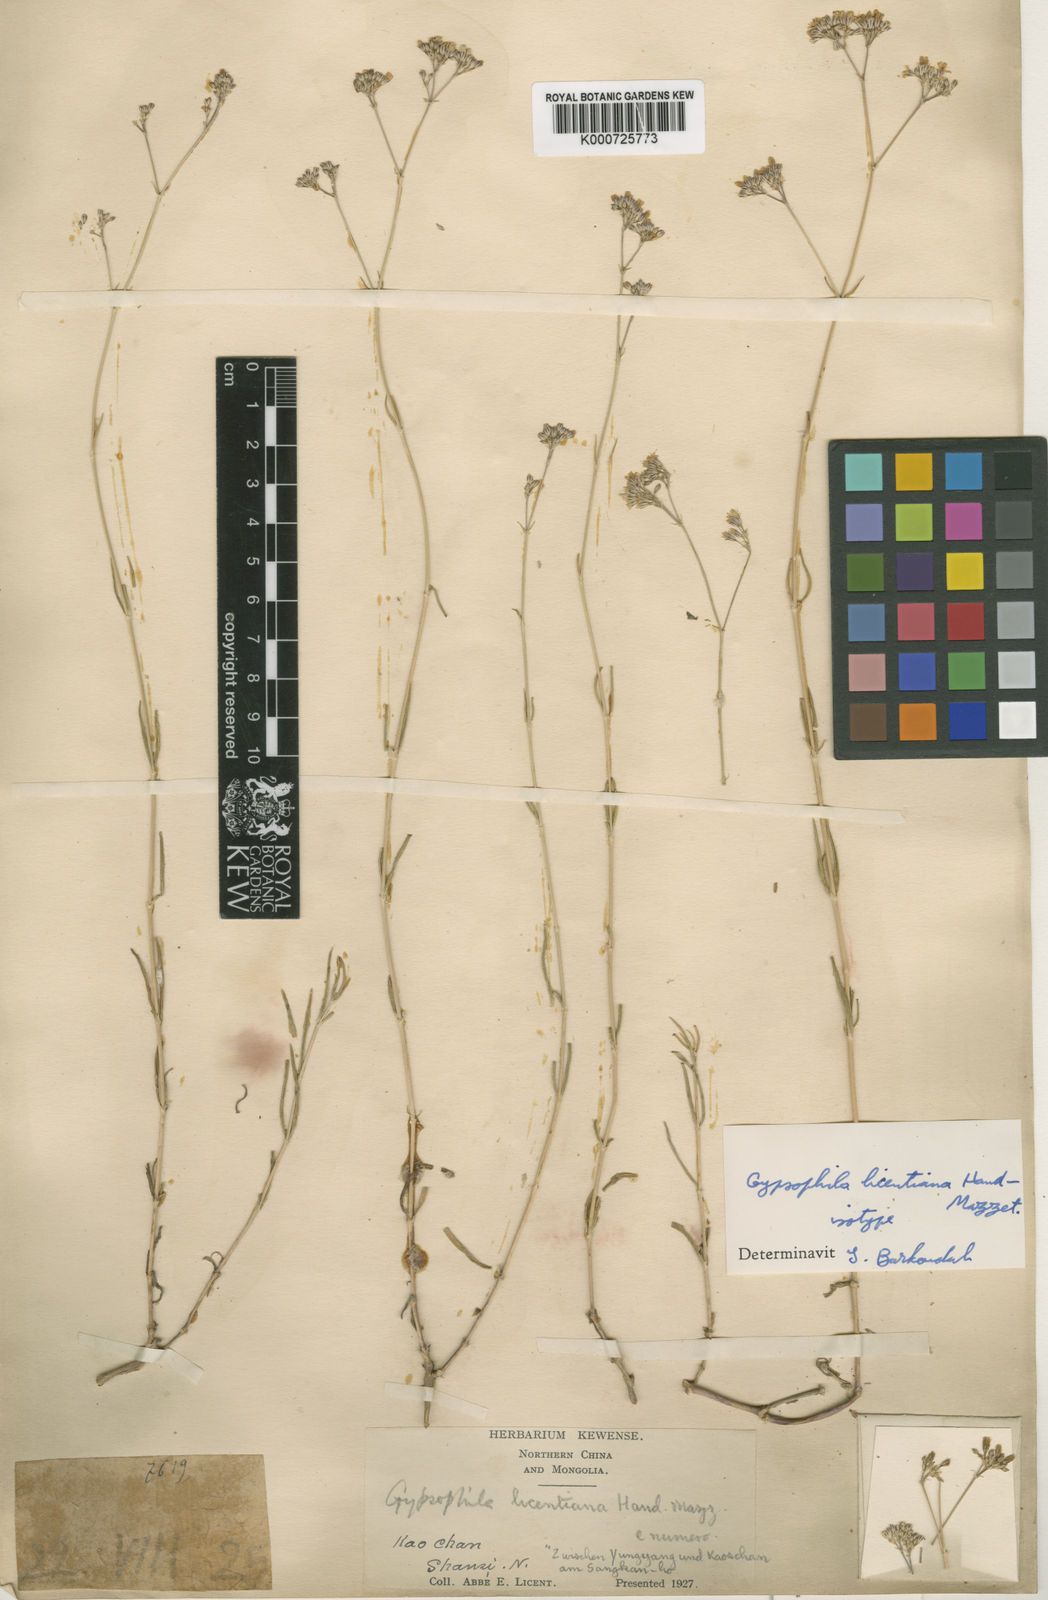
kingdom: Plantae
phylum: Tracheophyta
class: Magnoliopsida
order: Caryophyllales
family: Caryophyllaceae
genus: Gypsophila
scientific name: Gypsophila licentiana
